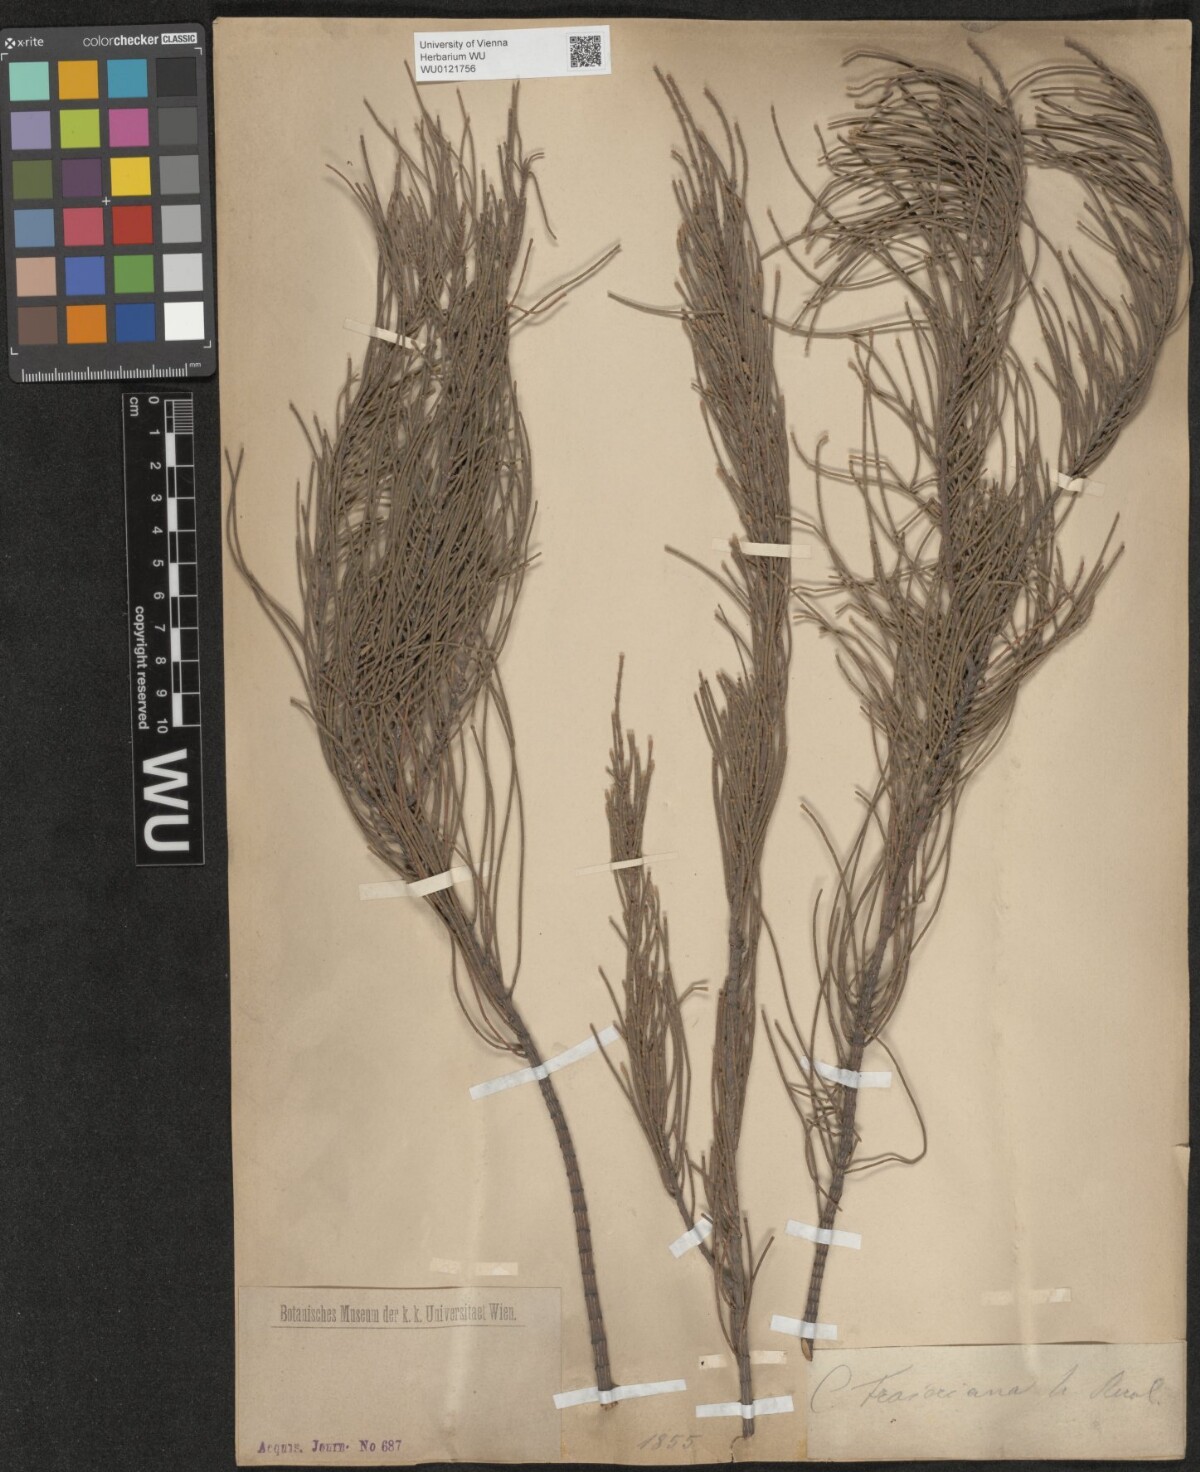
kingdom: Plantae
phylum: Tracheophyta
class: Magnoliopsida
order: Fagales
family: Casuarinaceae
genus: Casuarina
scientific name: Casuarina
